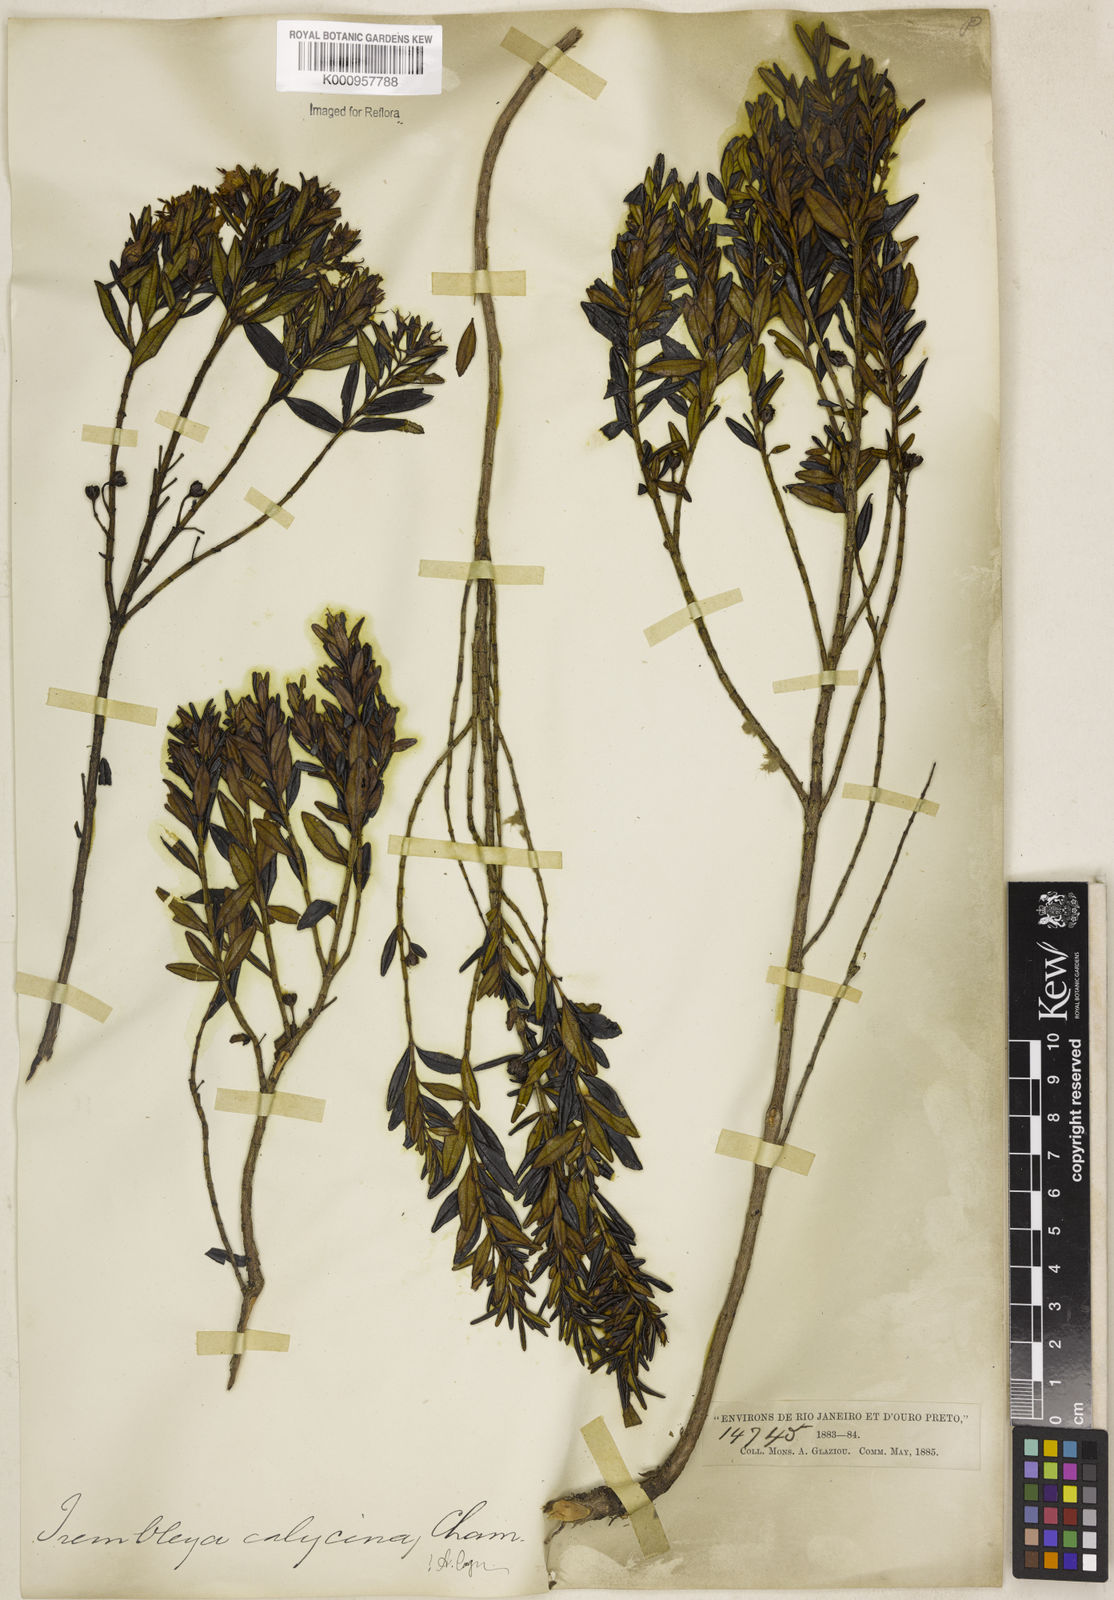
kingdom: Plantae
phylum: Tracheophyta
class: Magnoliopsida
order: Myrtales
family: Melastomataceae
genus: Microlicia
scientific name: Microlicia calycina
